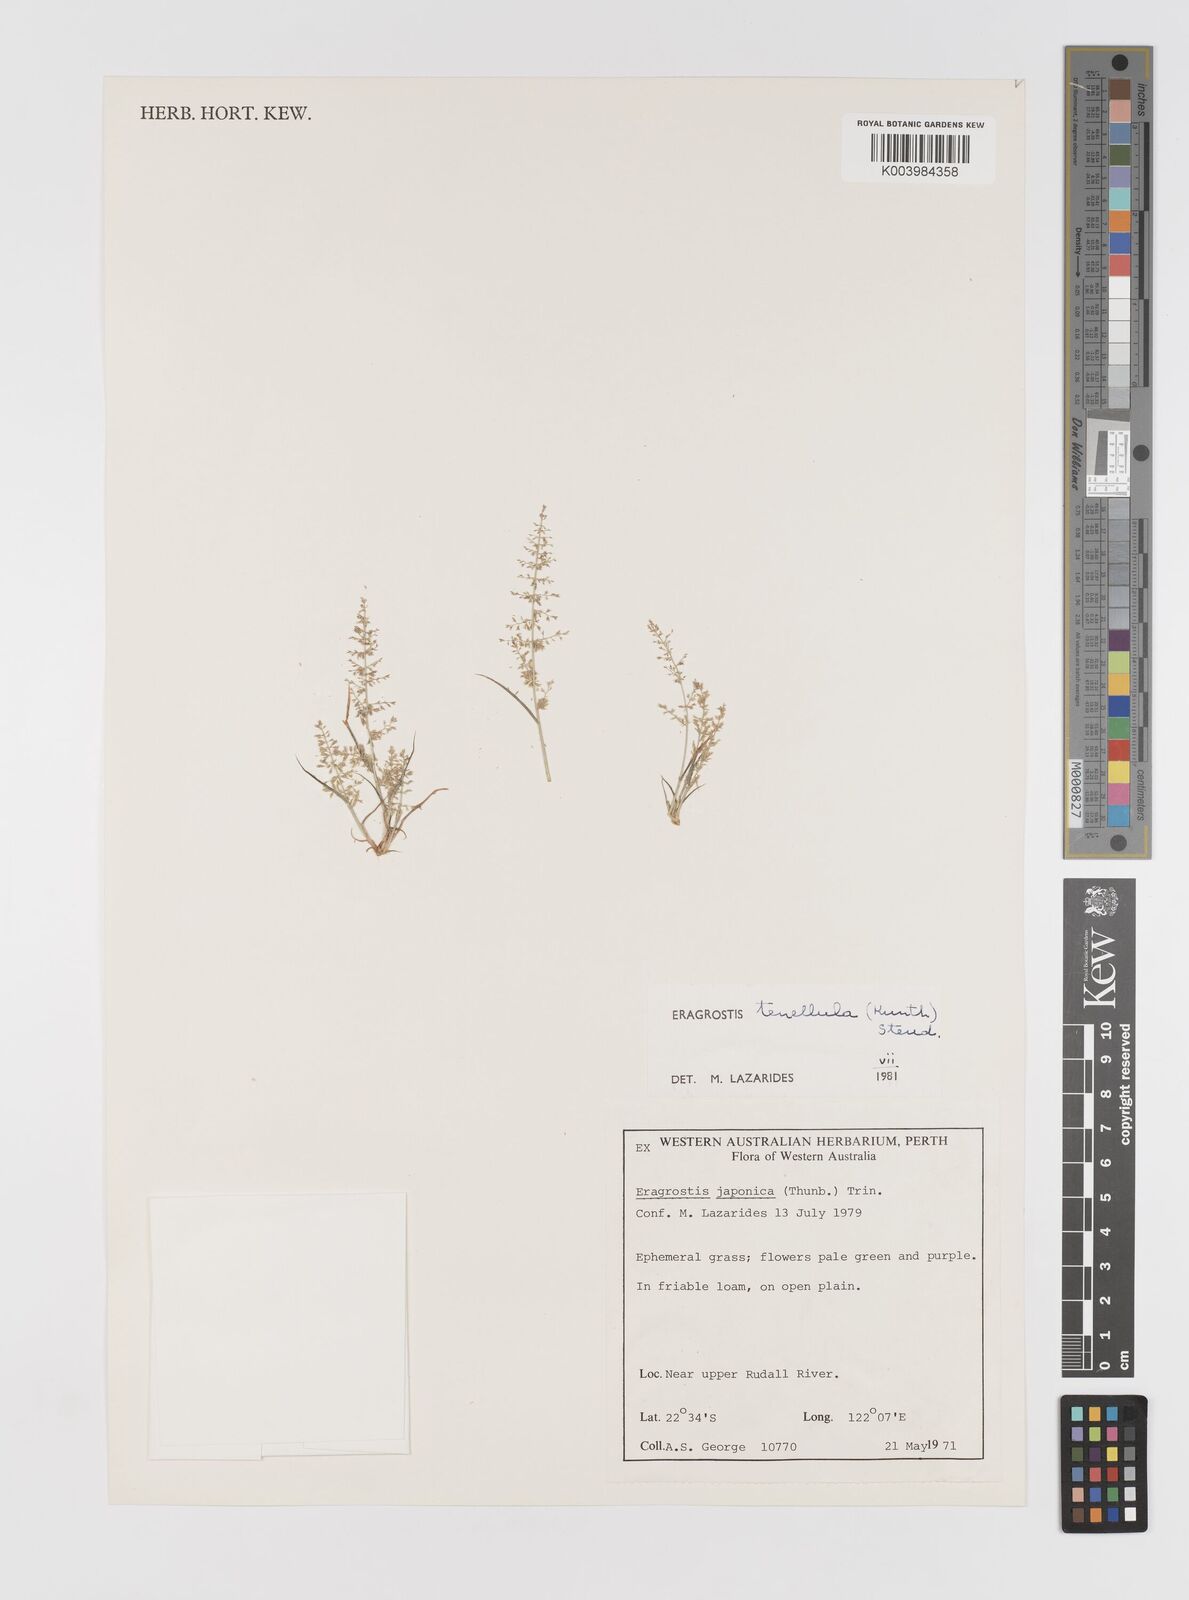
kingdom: Plantae
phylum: Tracheophyta
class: Liliopsida
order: Poales
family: Poaceae
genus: Eragrostis
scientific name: Eragrostis tenellula
